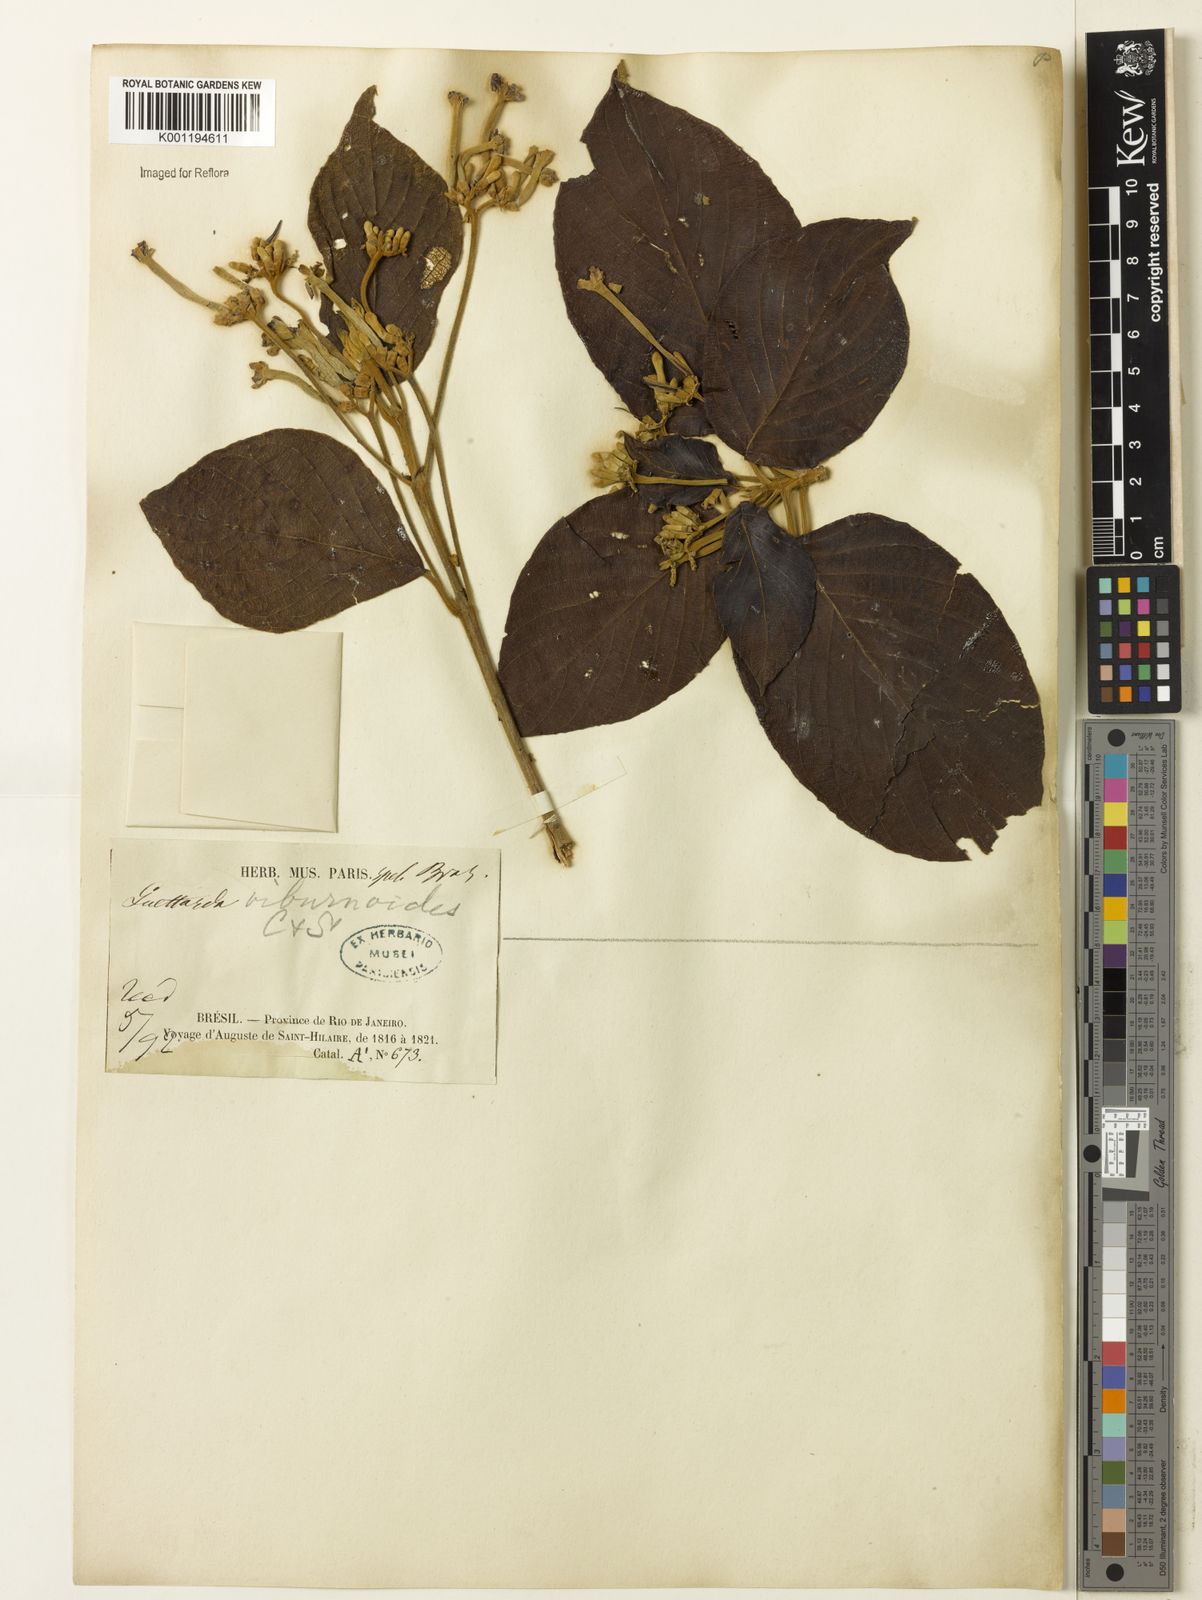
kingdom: Plantae
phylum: Tracheophyta
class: Magnoliopsida
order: Gentianales
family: Rubiaceae
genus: Guettarda
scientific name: Guettarda viburnoides
